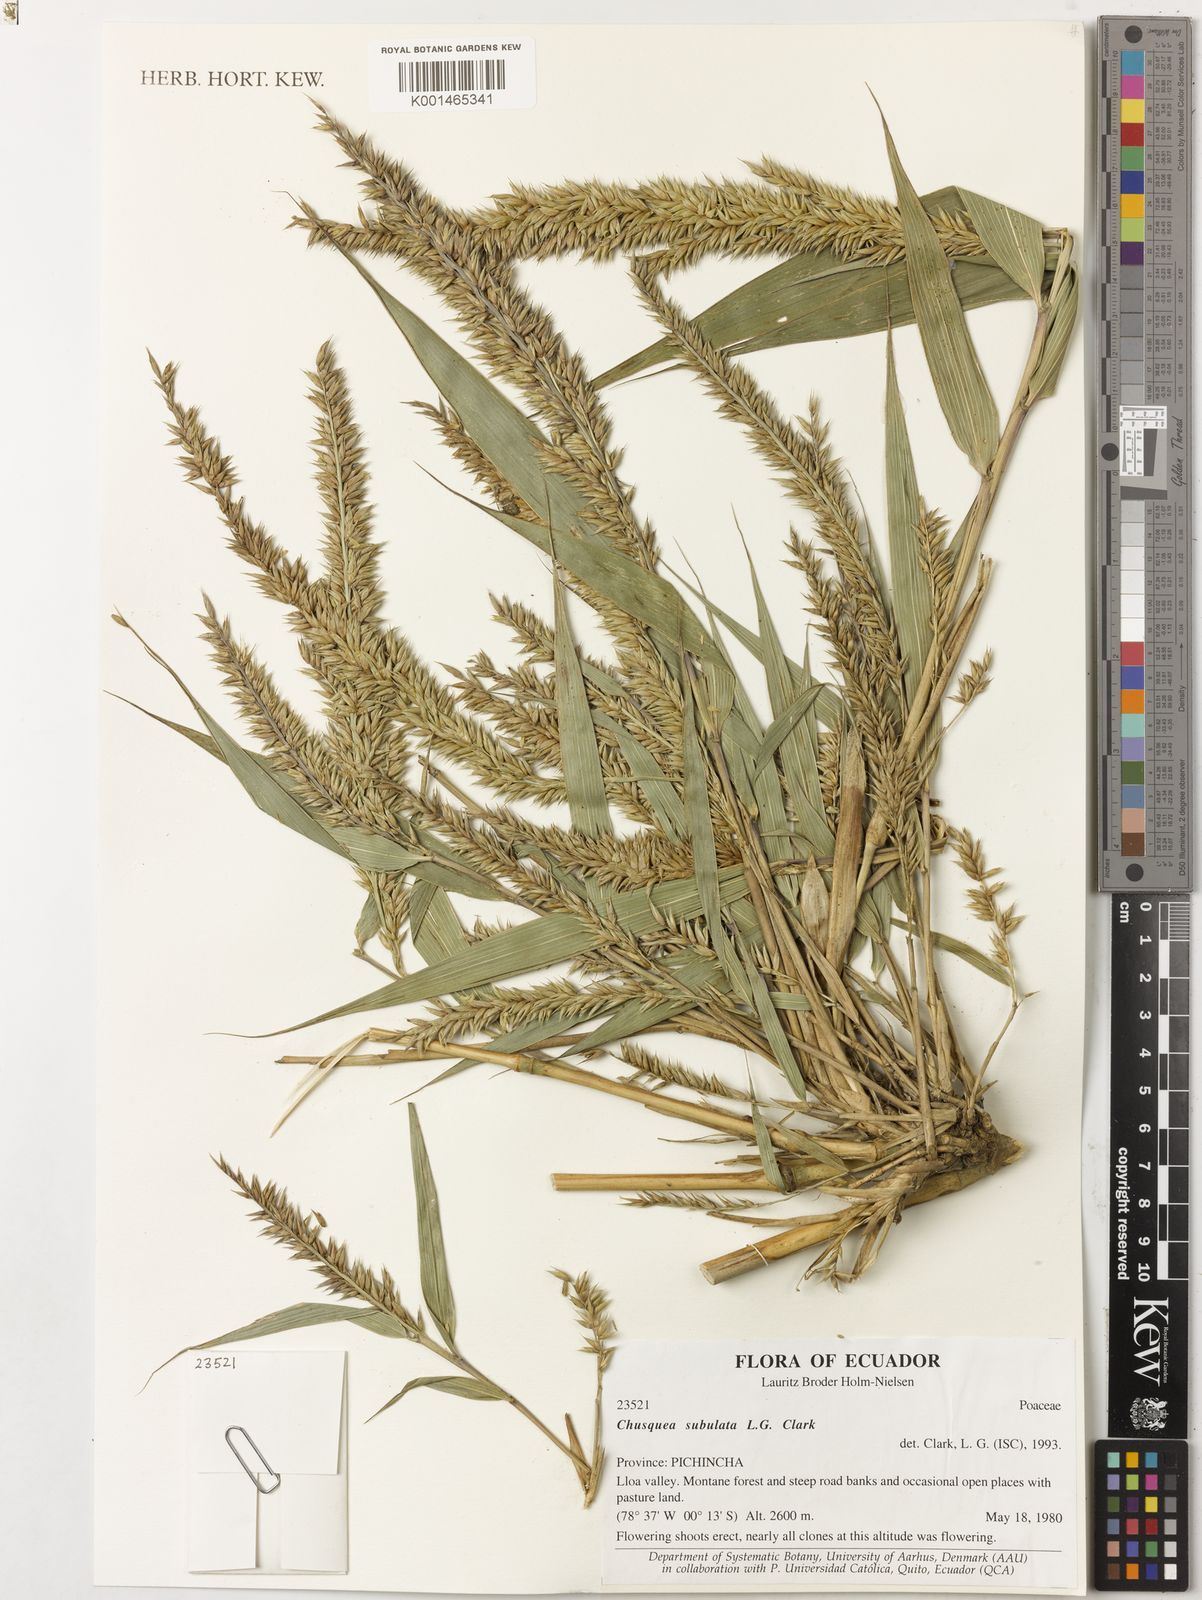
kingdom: Plantae
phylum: Tracheophyta
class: Liliopsida
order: Poales
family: Poaceae
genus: Chusquea
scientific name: Chusquea subulata
